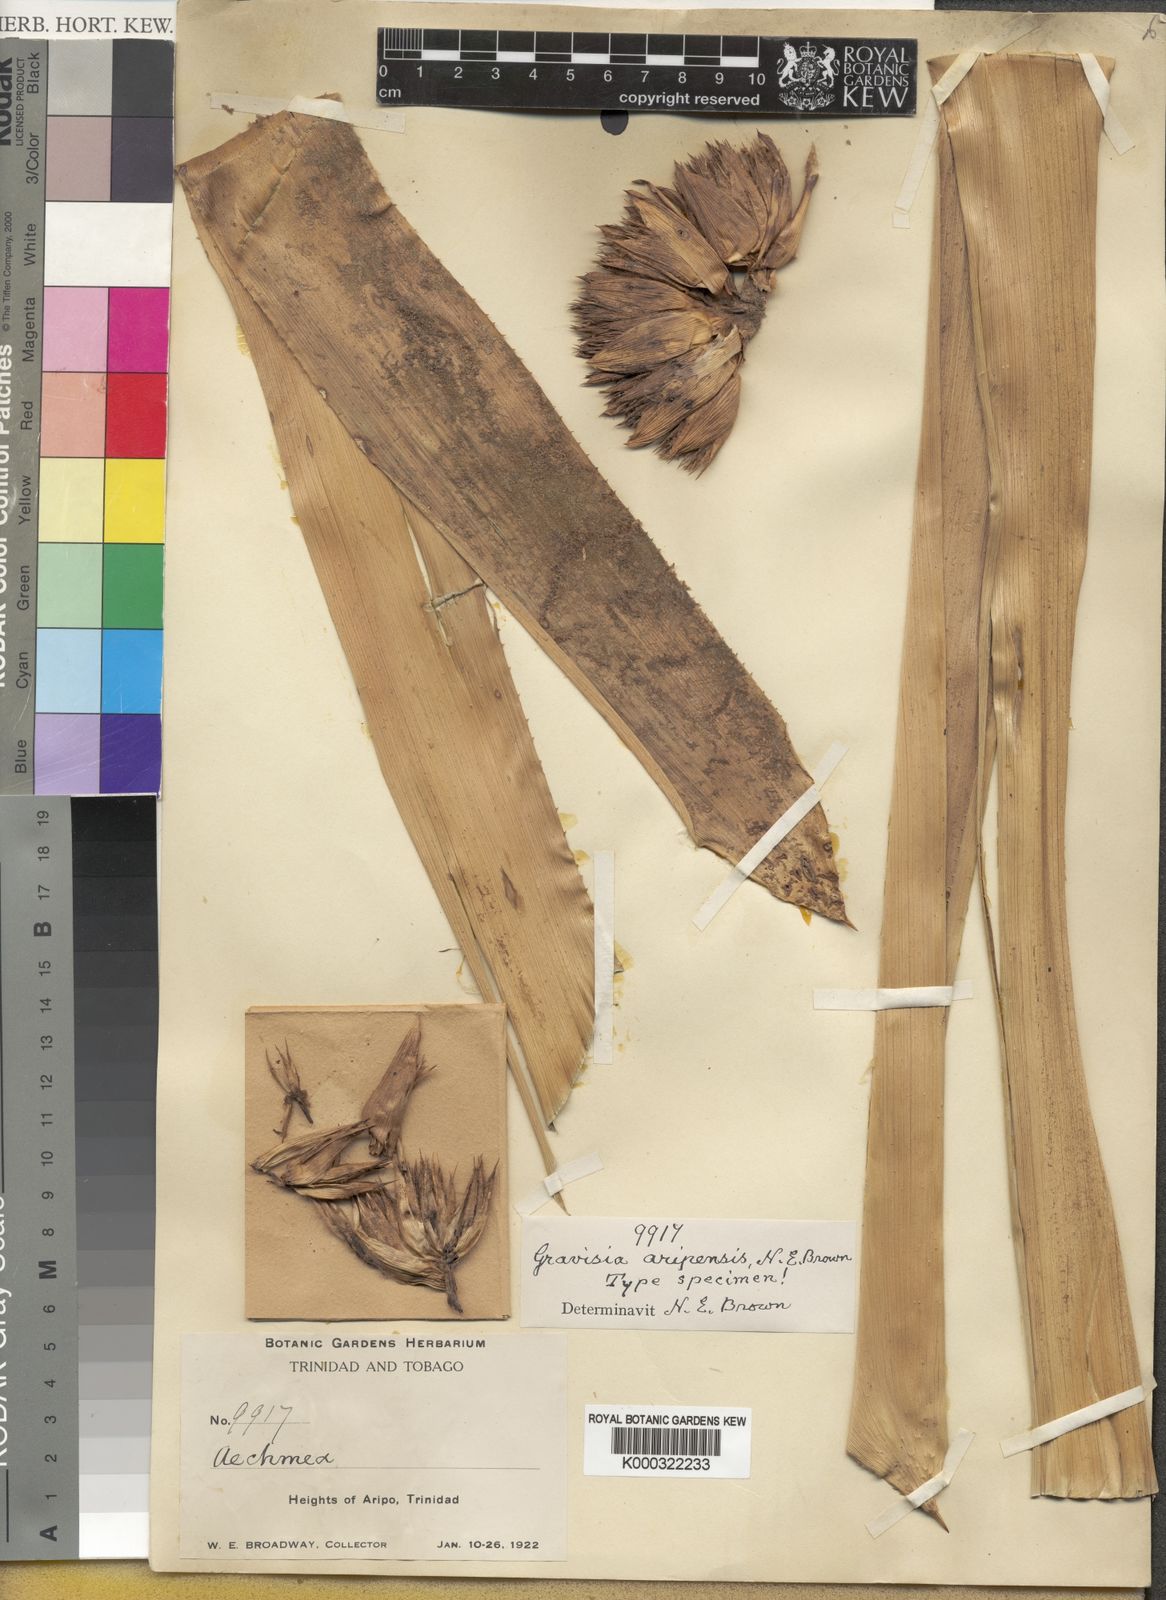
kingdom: Plantae
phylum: Tracheophyta
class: Liliopsida
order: Poales
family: Bromeliaceae
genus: Aechmea
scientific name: Aechmea
